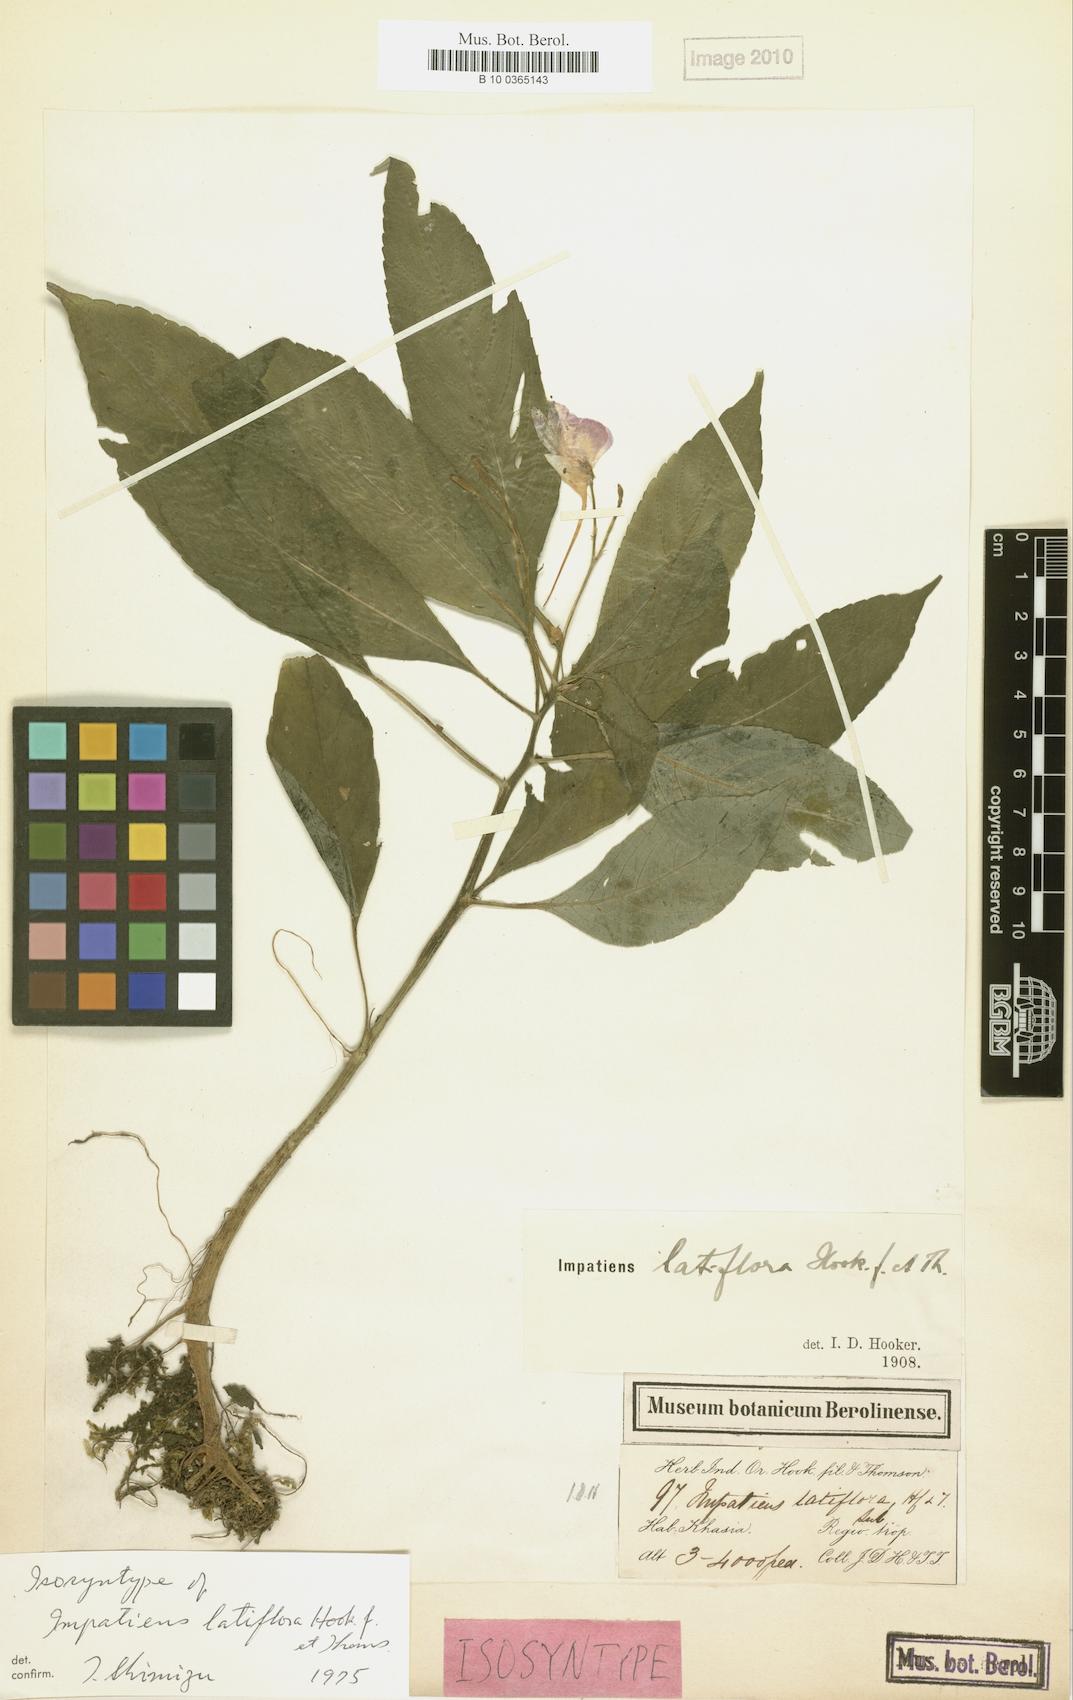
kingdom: Plantae
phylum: Tracheophyta
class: Magnoliopsida
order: Ericales
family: Balsaminaceae
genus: Impatiens
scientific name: Impatiens latiflora
